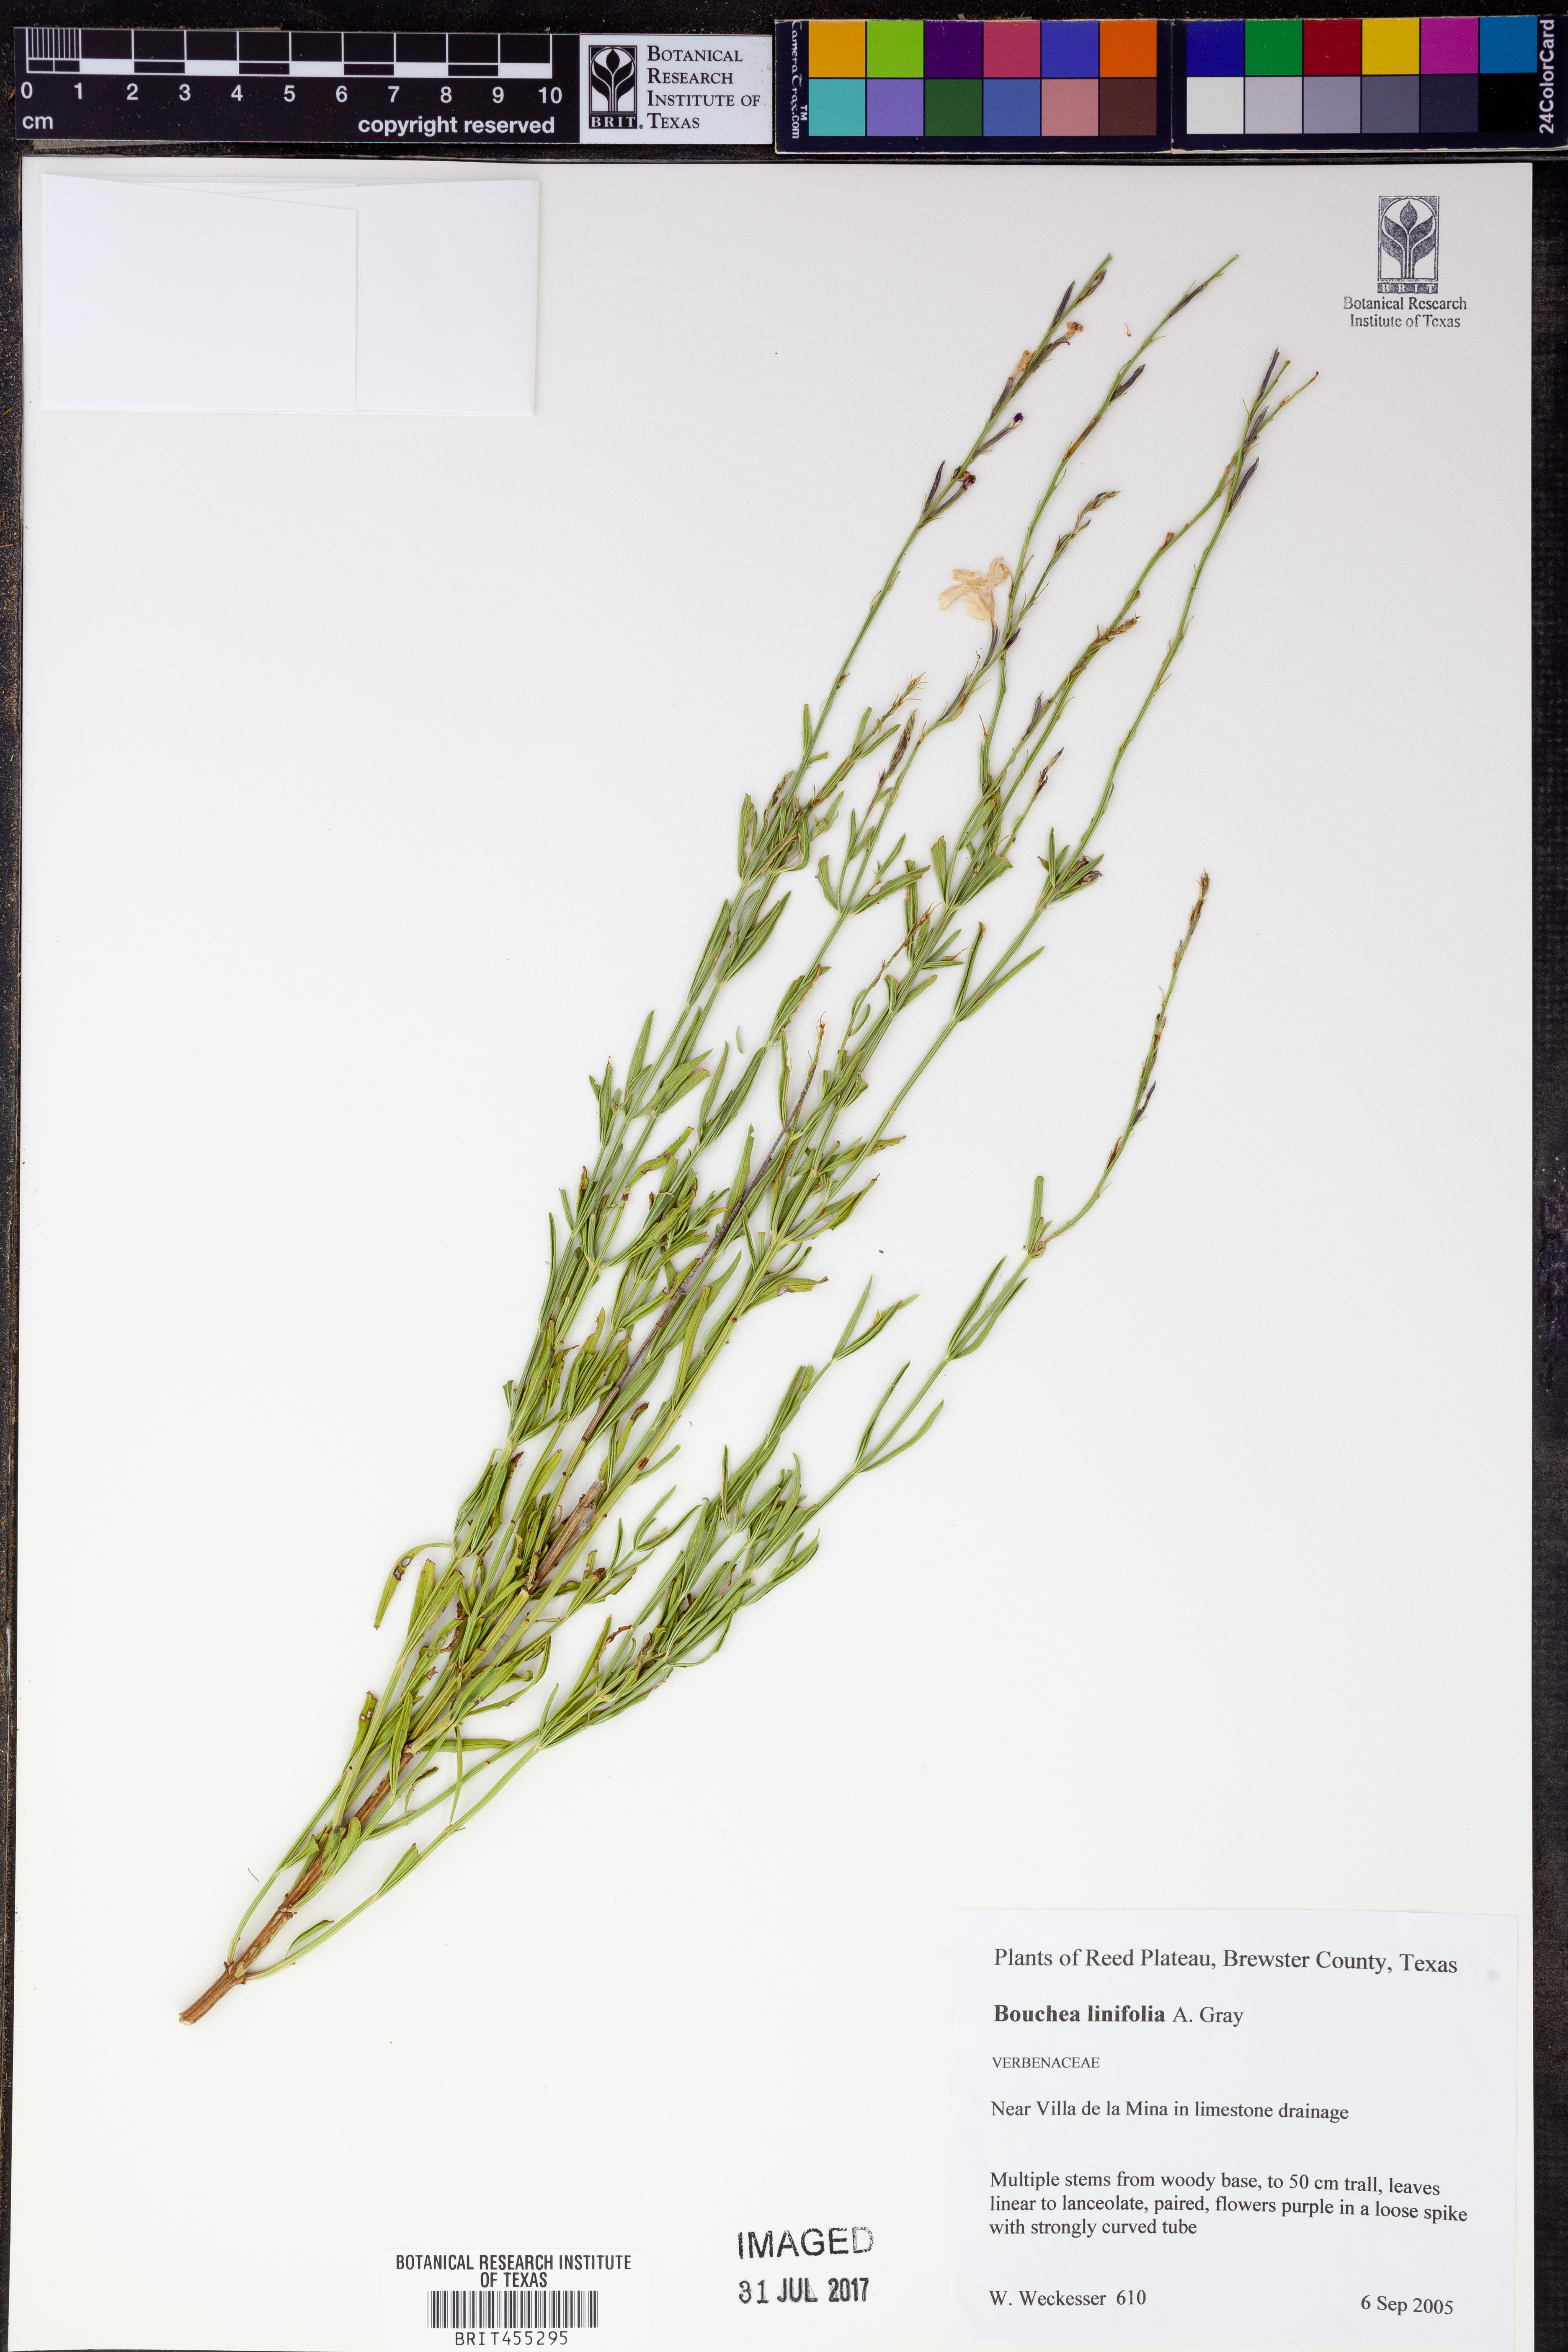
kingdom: Plantae
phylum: Tracheophyta
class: Magnoliopsida
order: Lamiales
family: Verbenaceae
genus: Bouchea
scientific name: Bouchea linifolia
